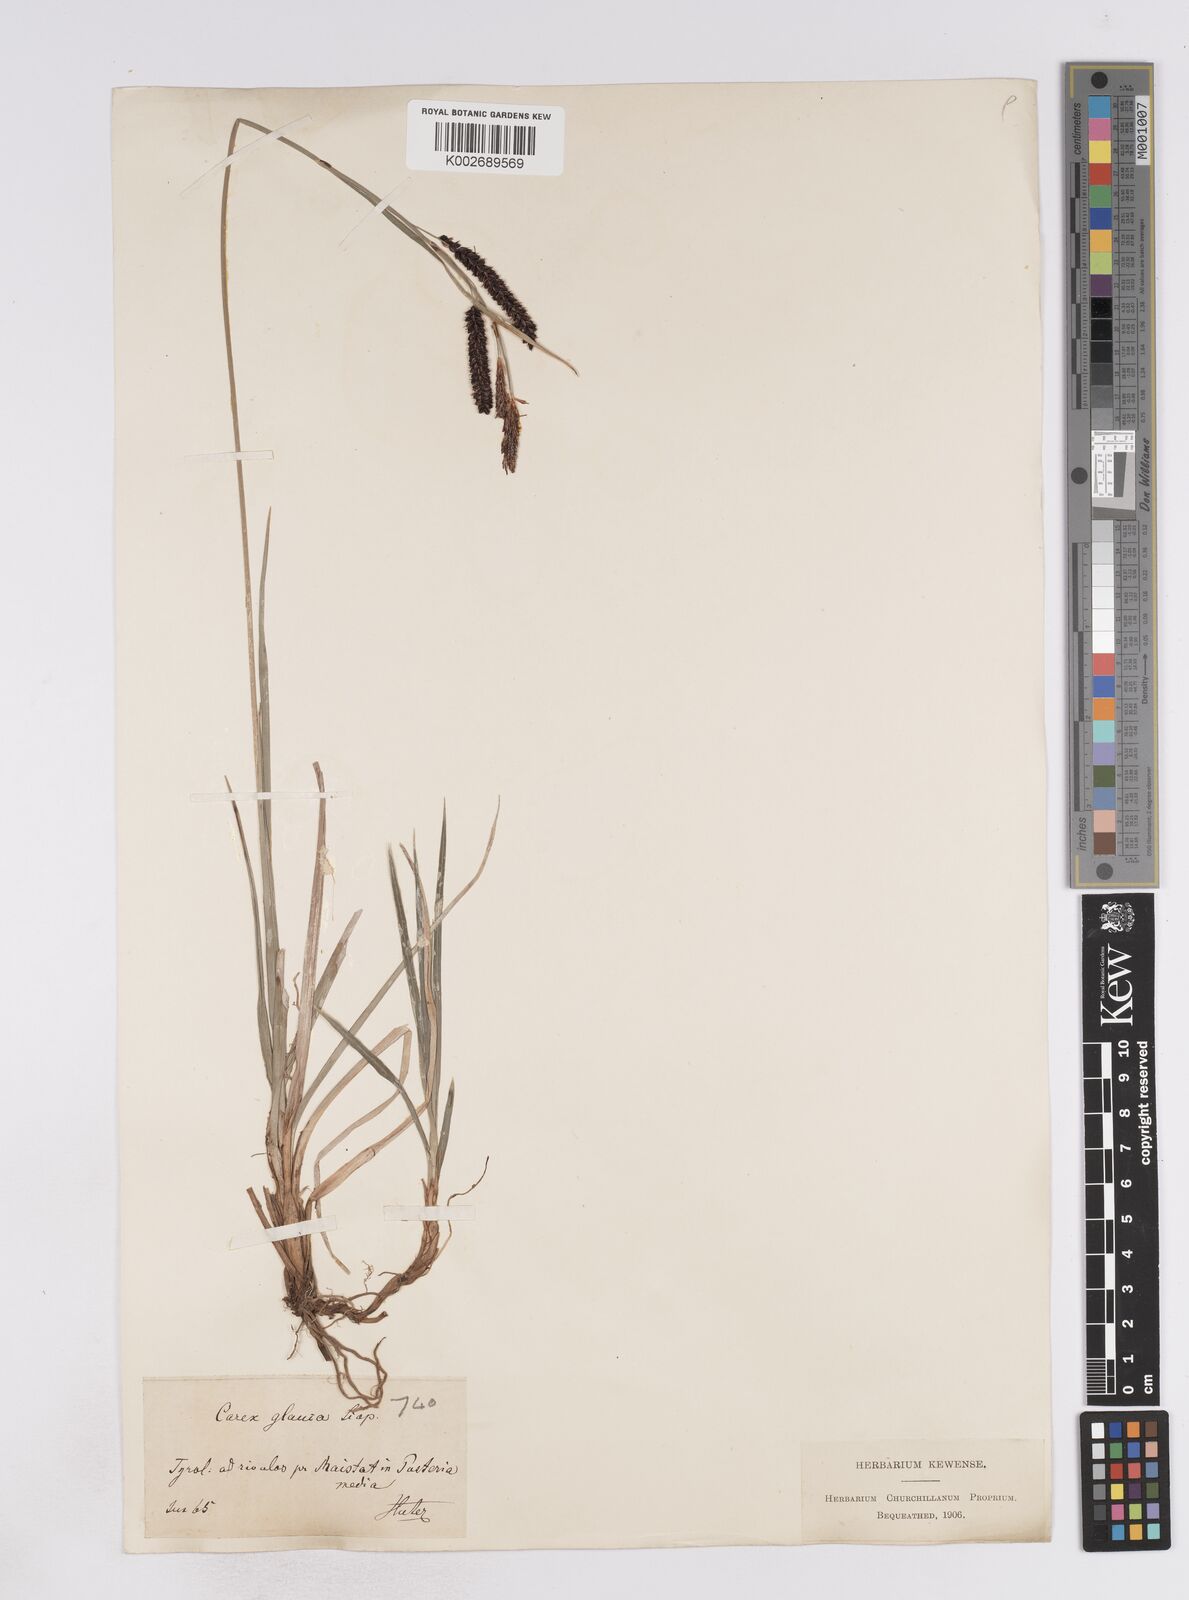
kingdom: Plantae
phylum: Tracheophyta
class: Liliopsida
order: Poales
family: Cyperaceae
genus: Carex
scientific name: Carex flacca
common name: Glaucous sedge
